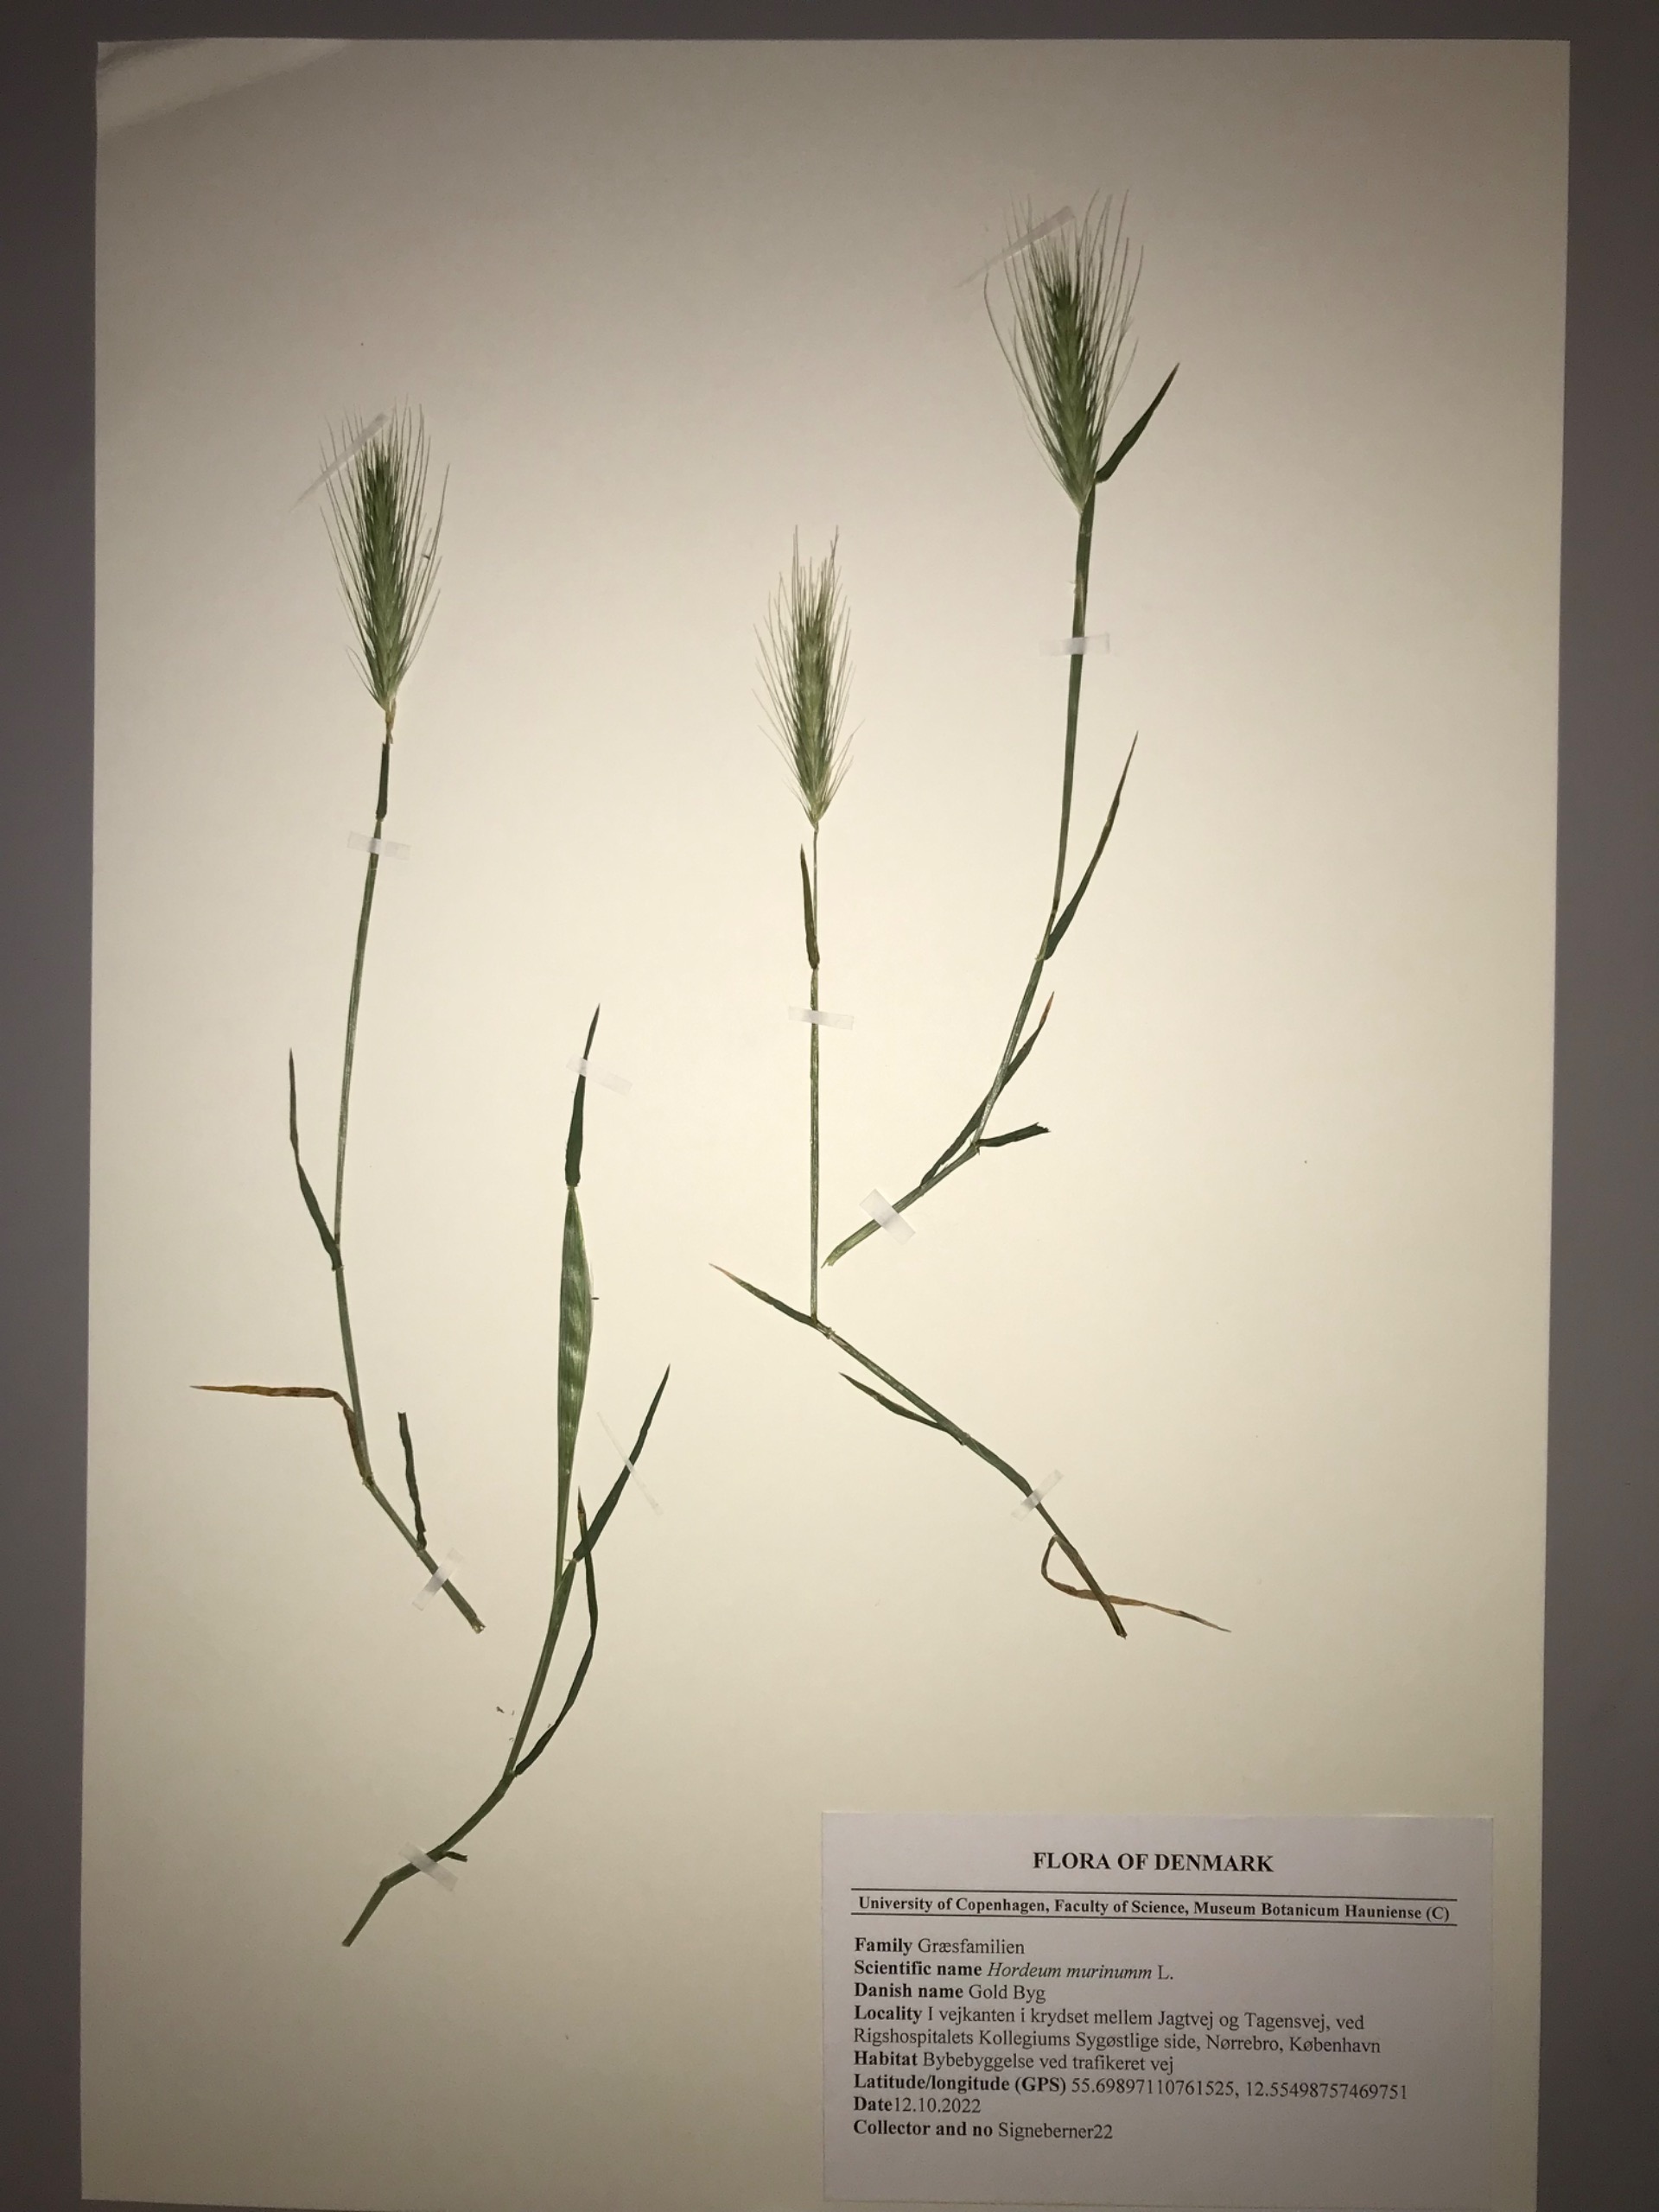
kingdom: Plantae
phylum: Tracheophyta
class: Liliopsida
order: Poales
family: Poaceae
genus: Hordeum
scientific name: Hordeum murinum
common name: Gold byg
